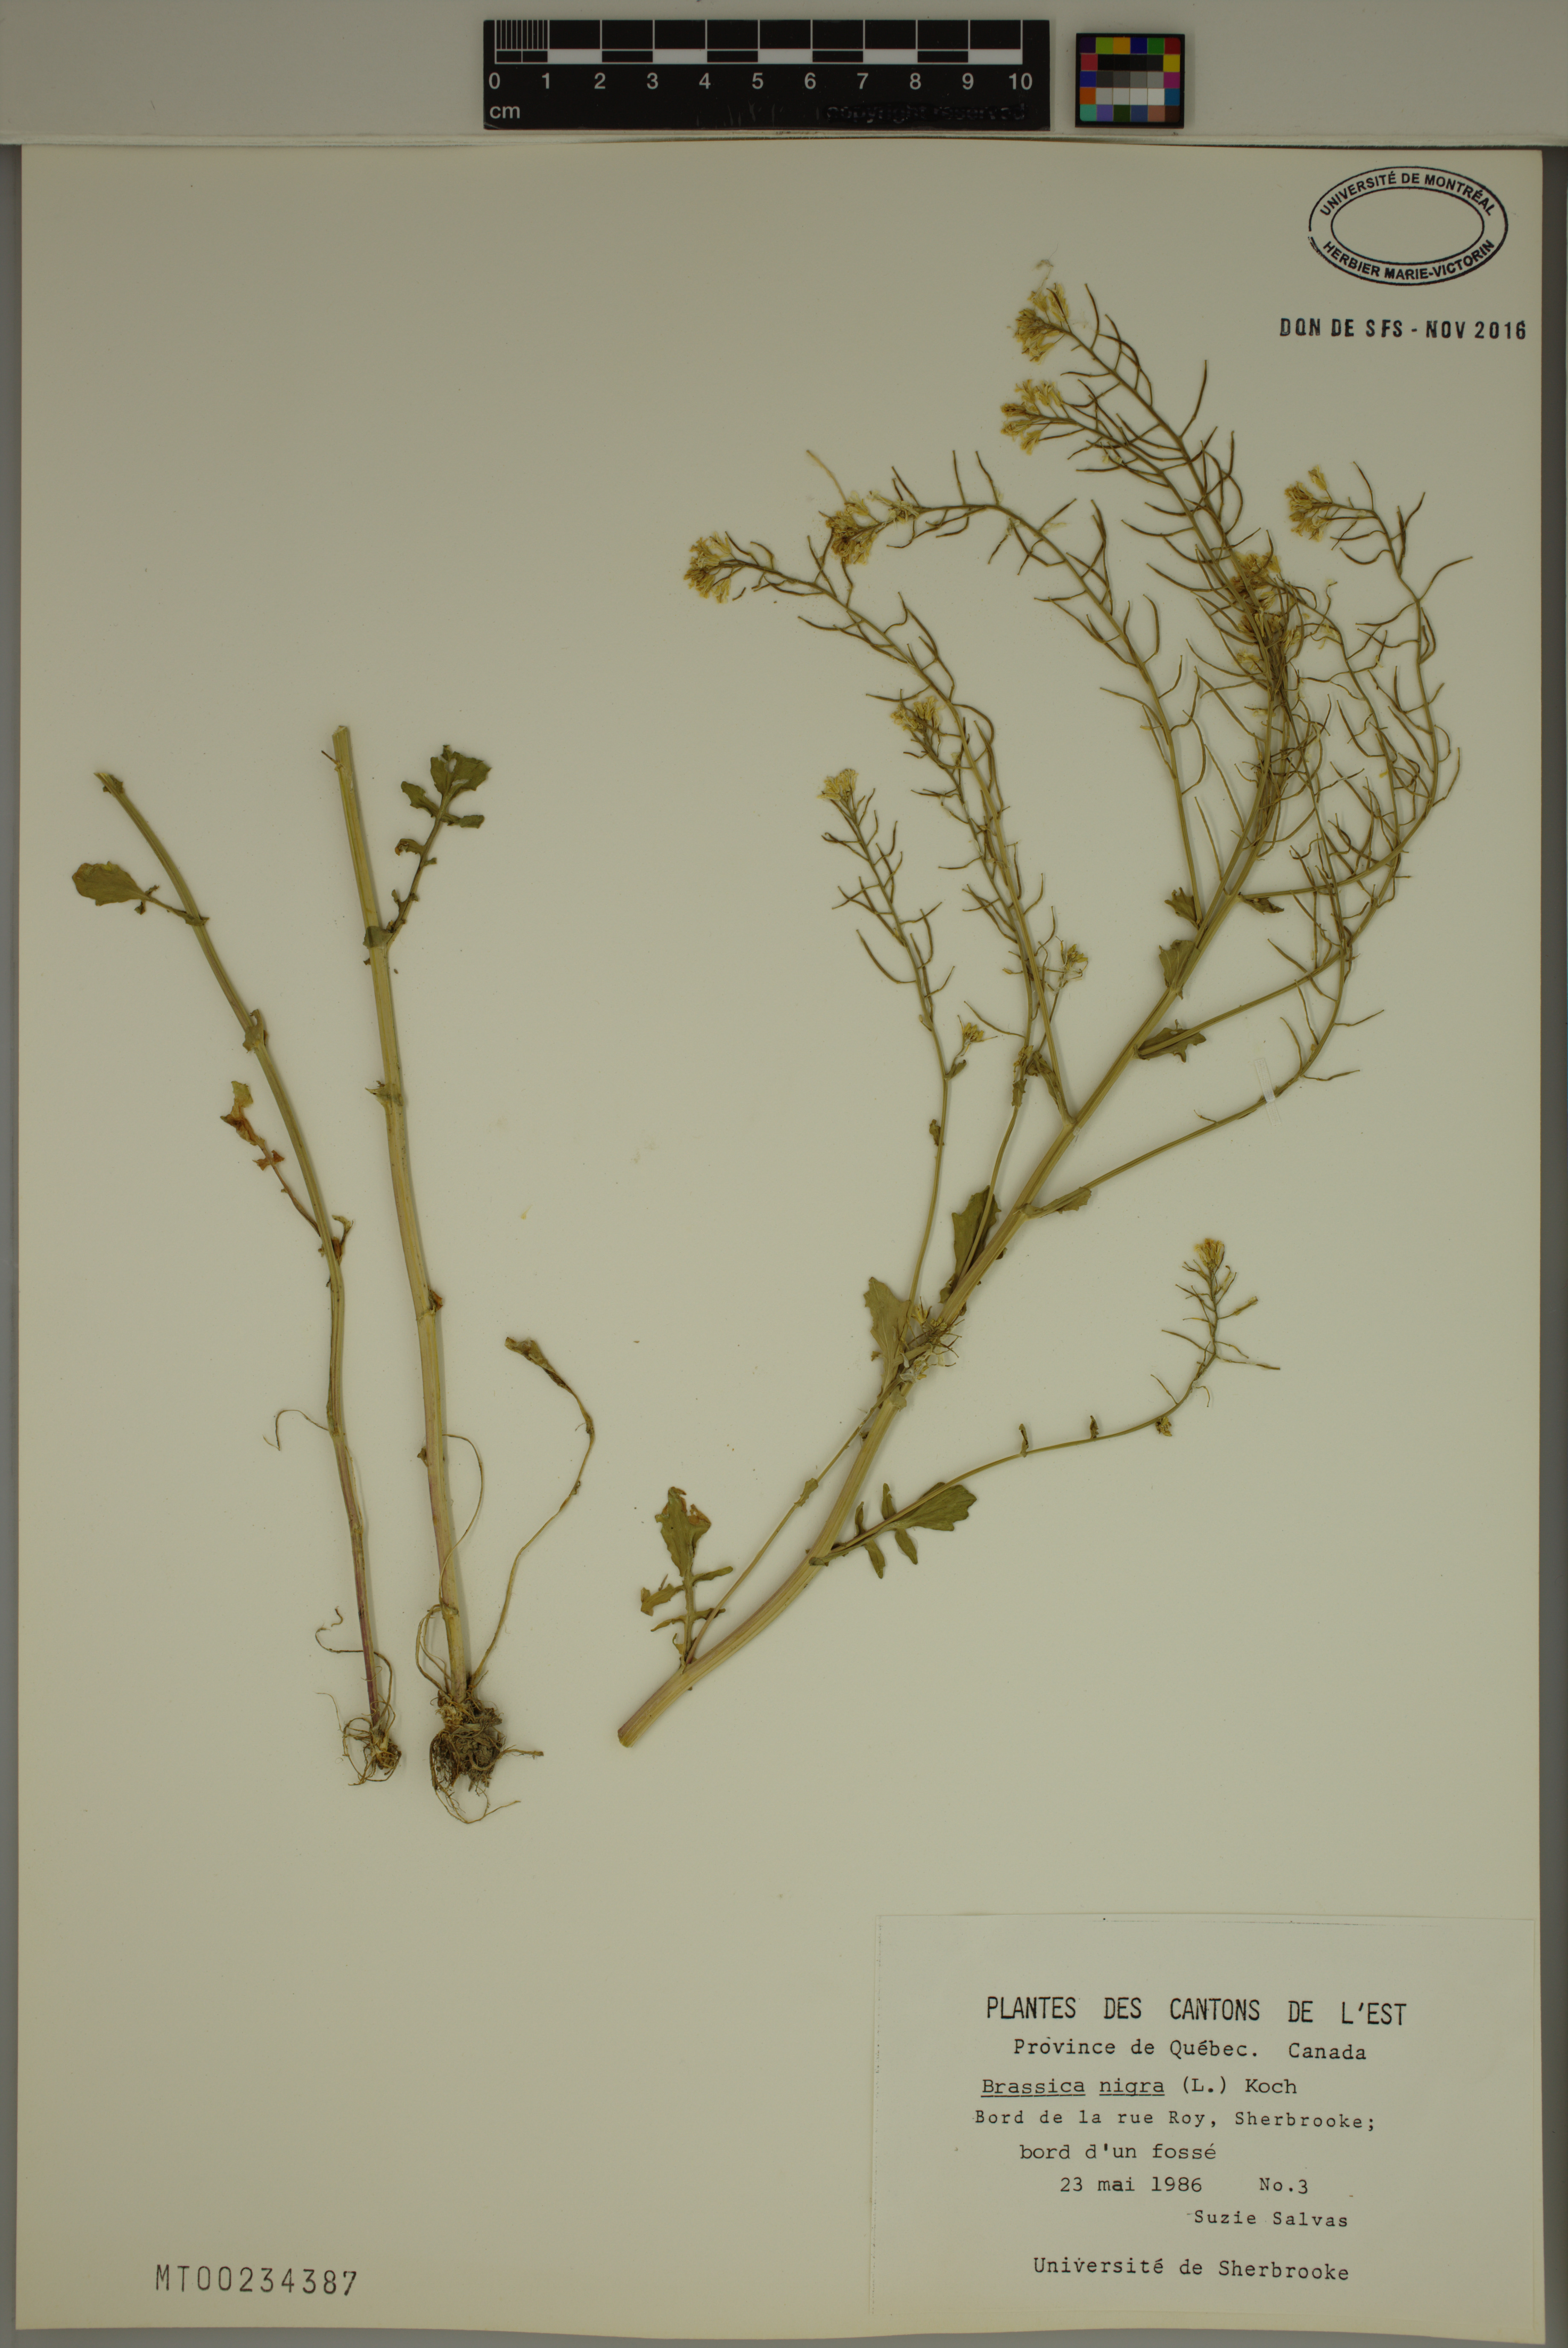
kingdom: Plantae
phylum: Tracheophyta
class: Magnoliopsida
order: Brassicales
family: Brassicaceae
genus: Brassica
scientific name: Brassica nigra
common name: Black mustard
